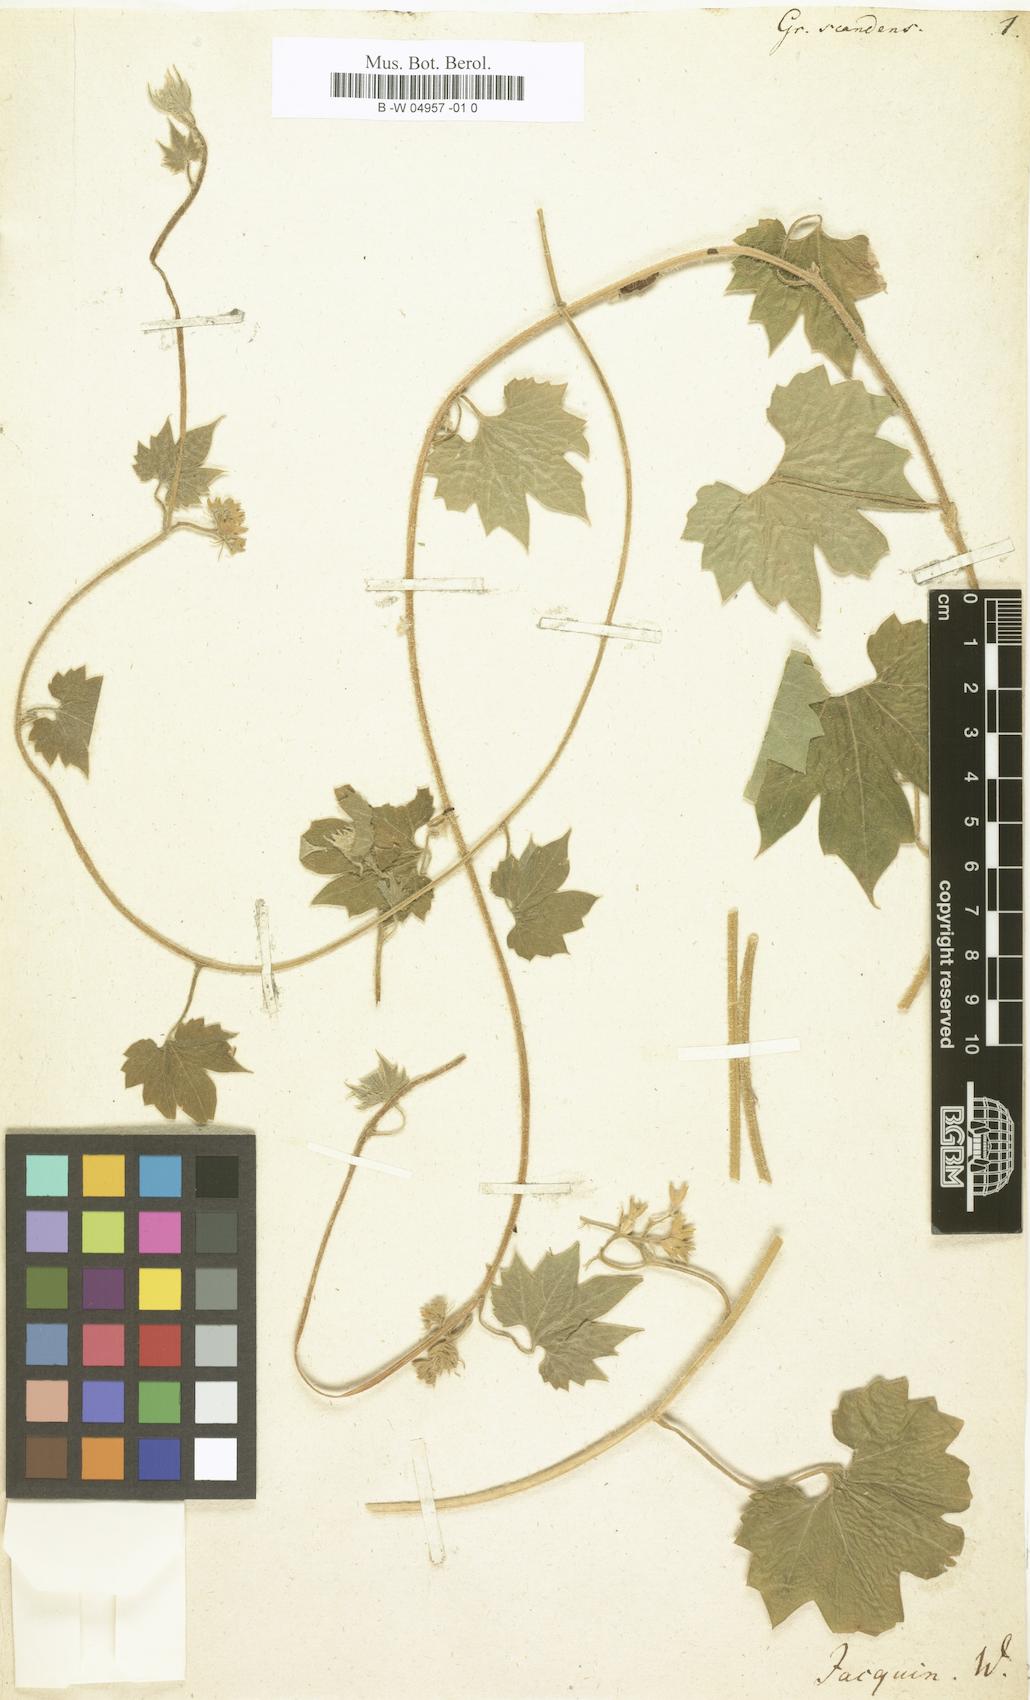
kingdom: Plantae
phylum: Tracheophyta
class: Magnoliopsida
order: Cornales
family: Loasaceae
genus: Gronovia
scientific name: Gronovia scandens
